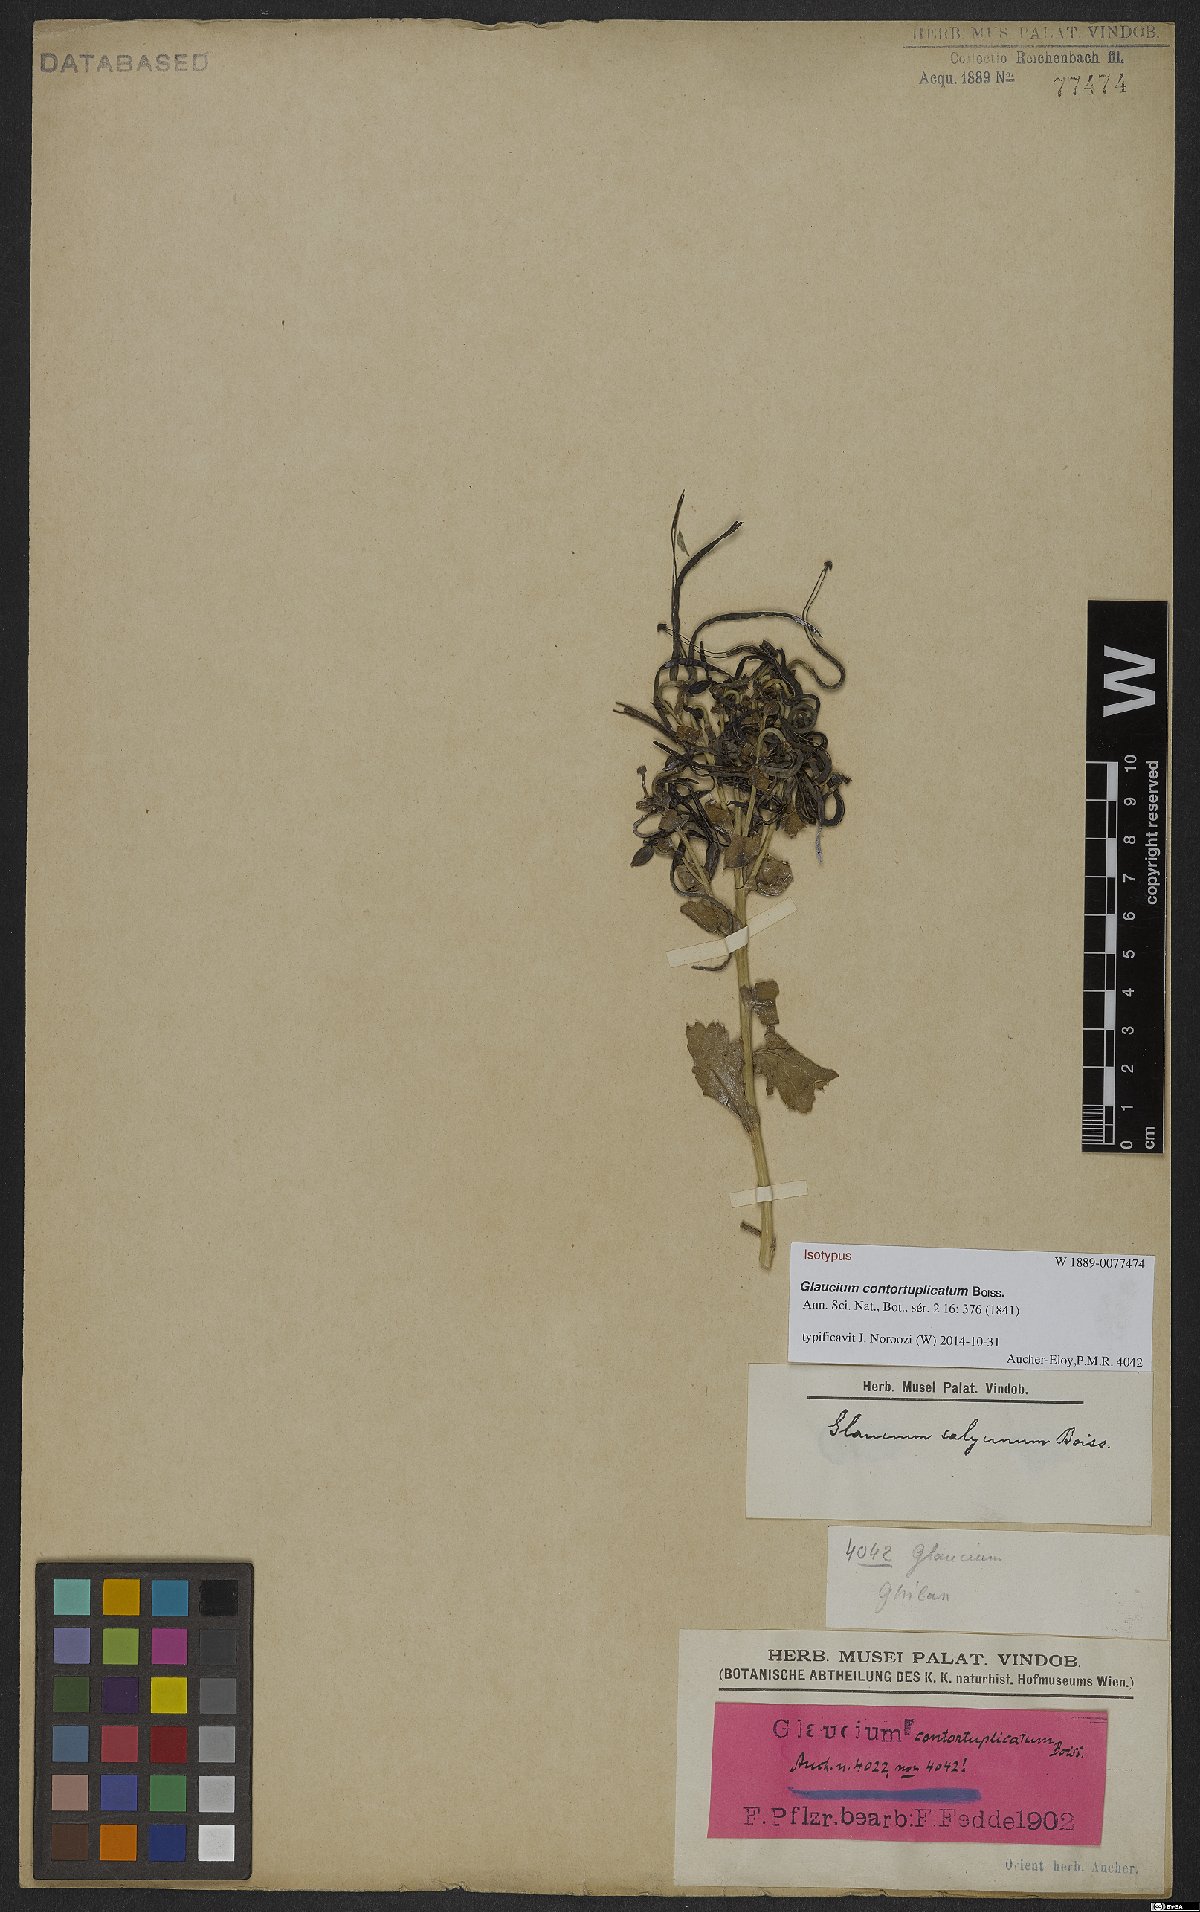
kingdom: Plantae
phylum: Tracheophyta
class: Magnoliopsida
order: Ranunculales
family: Papaveraceae
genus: Glaucium
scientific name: Glaucium contortuplicatum
